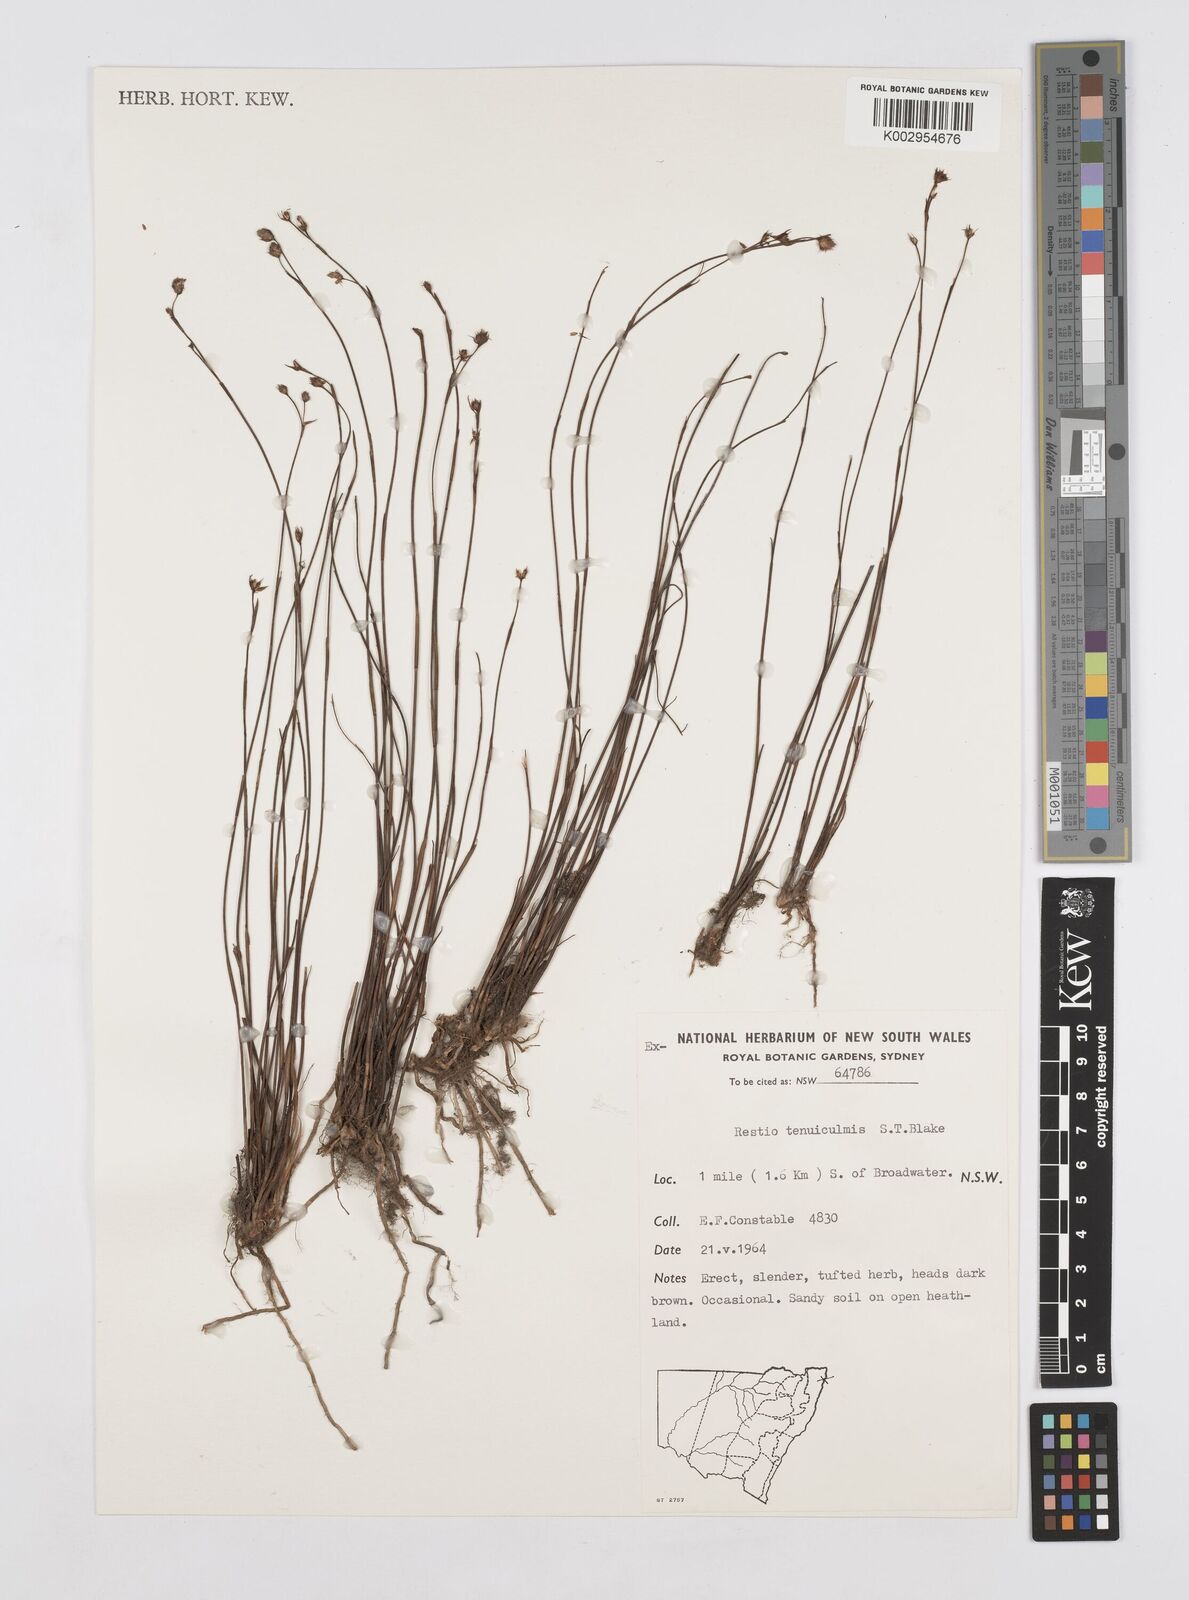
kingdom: Plantae
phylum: Tracheophyta
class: Liliopsida
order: Poales
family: Restionaceae
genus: Baloskion
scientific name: Baloskion tenuiculme
